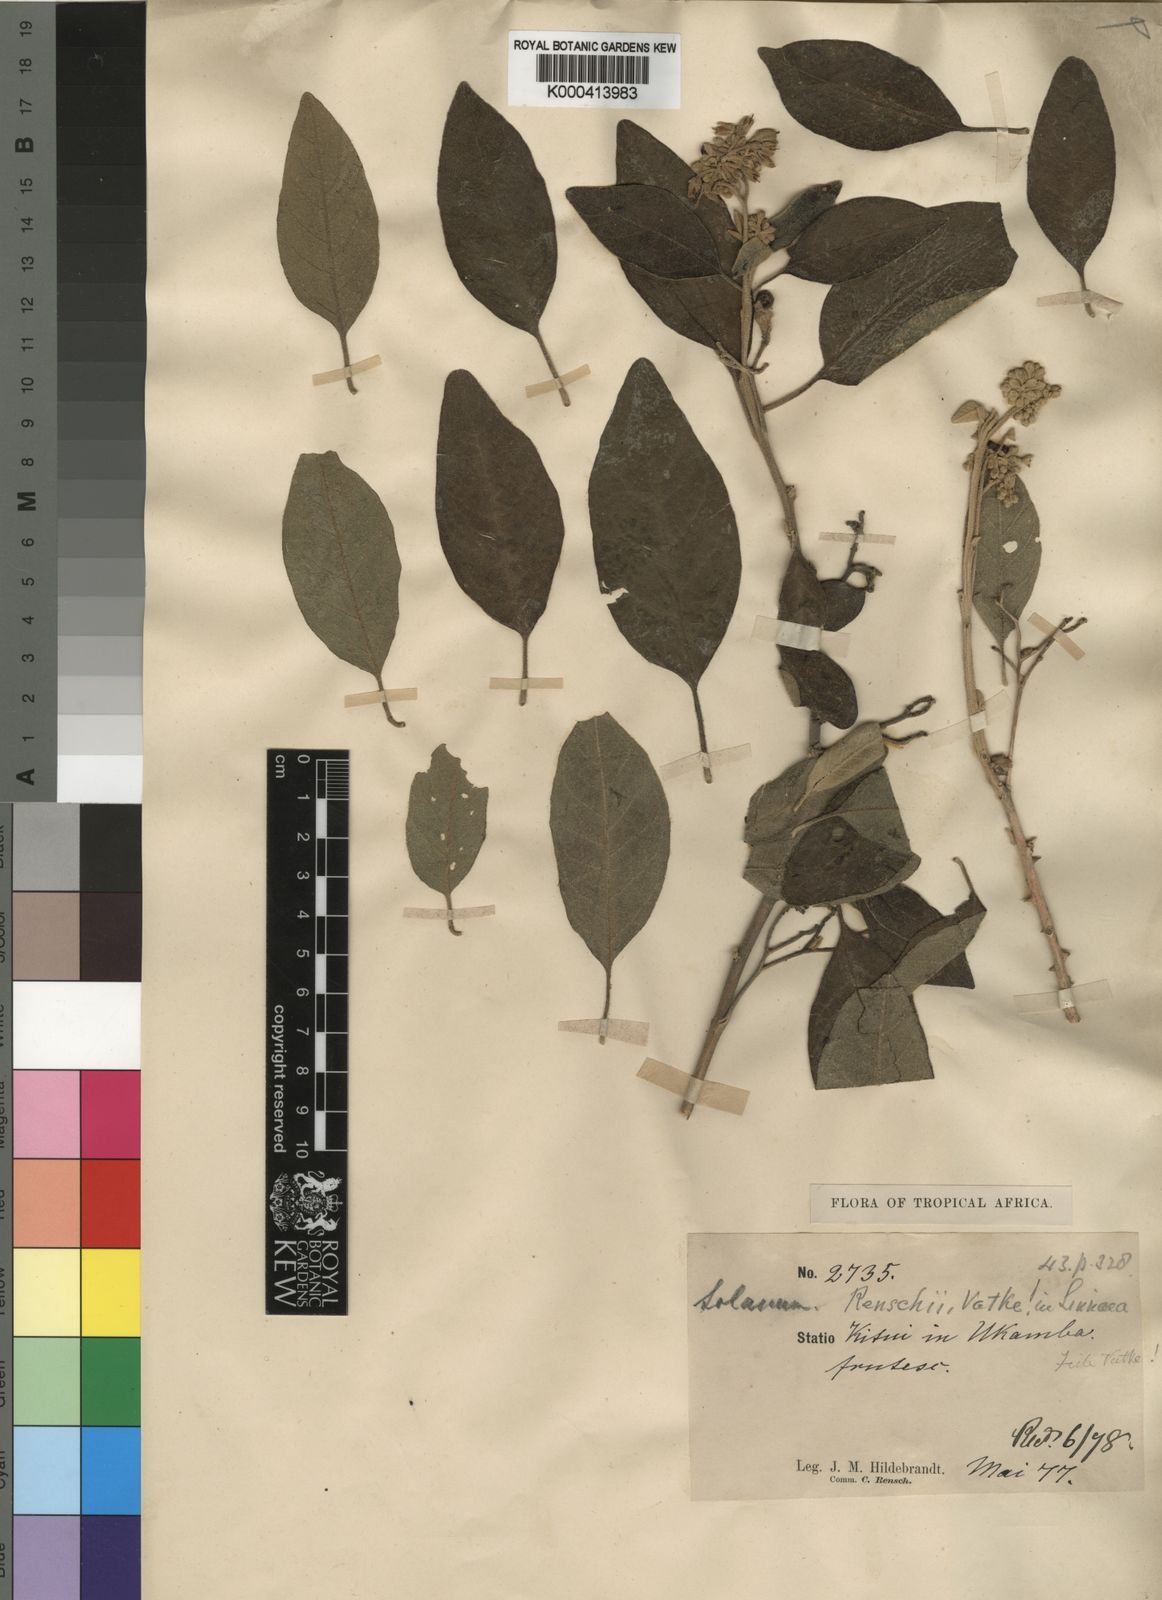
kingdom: Plantae
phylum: Tracheophyta
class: Magnoliopsida
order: Solanales
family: Solanaceae
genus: Solanum
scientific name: Solanum tettense
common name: Mozambique bitter apple
